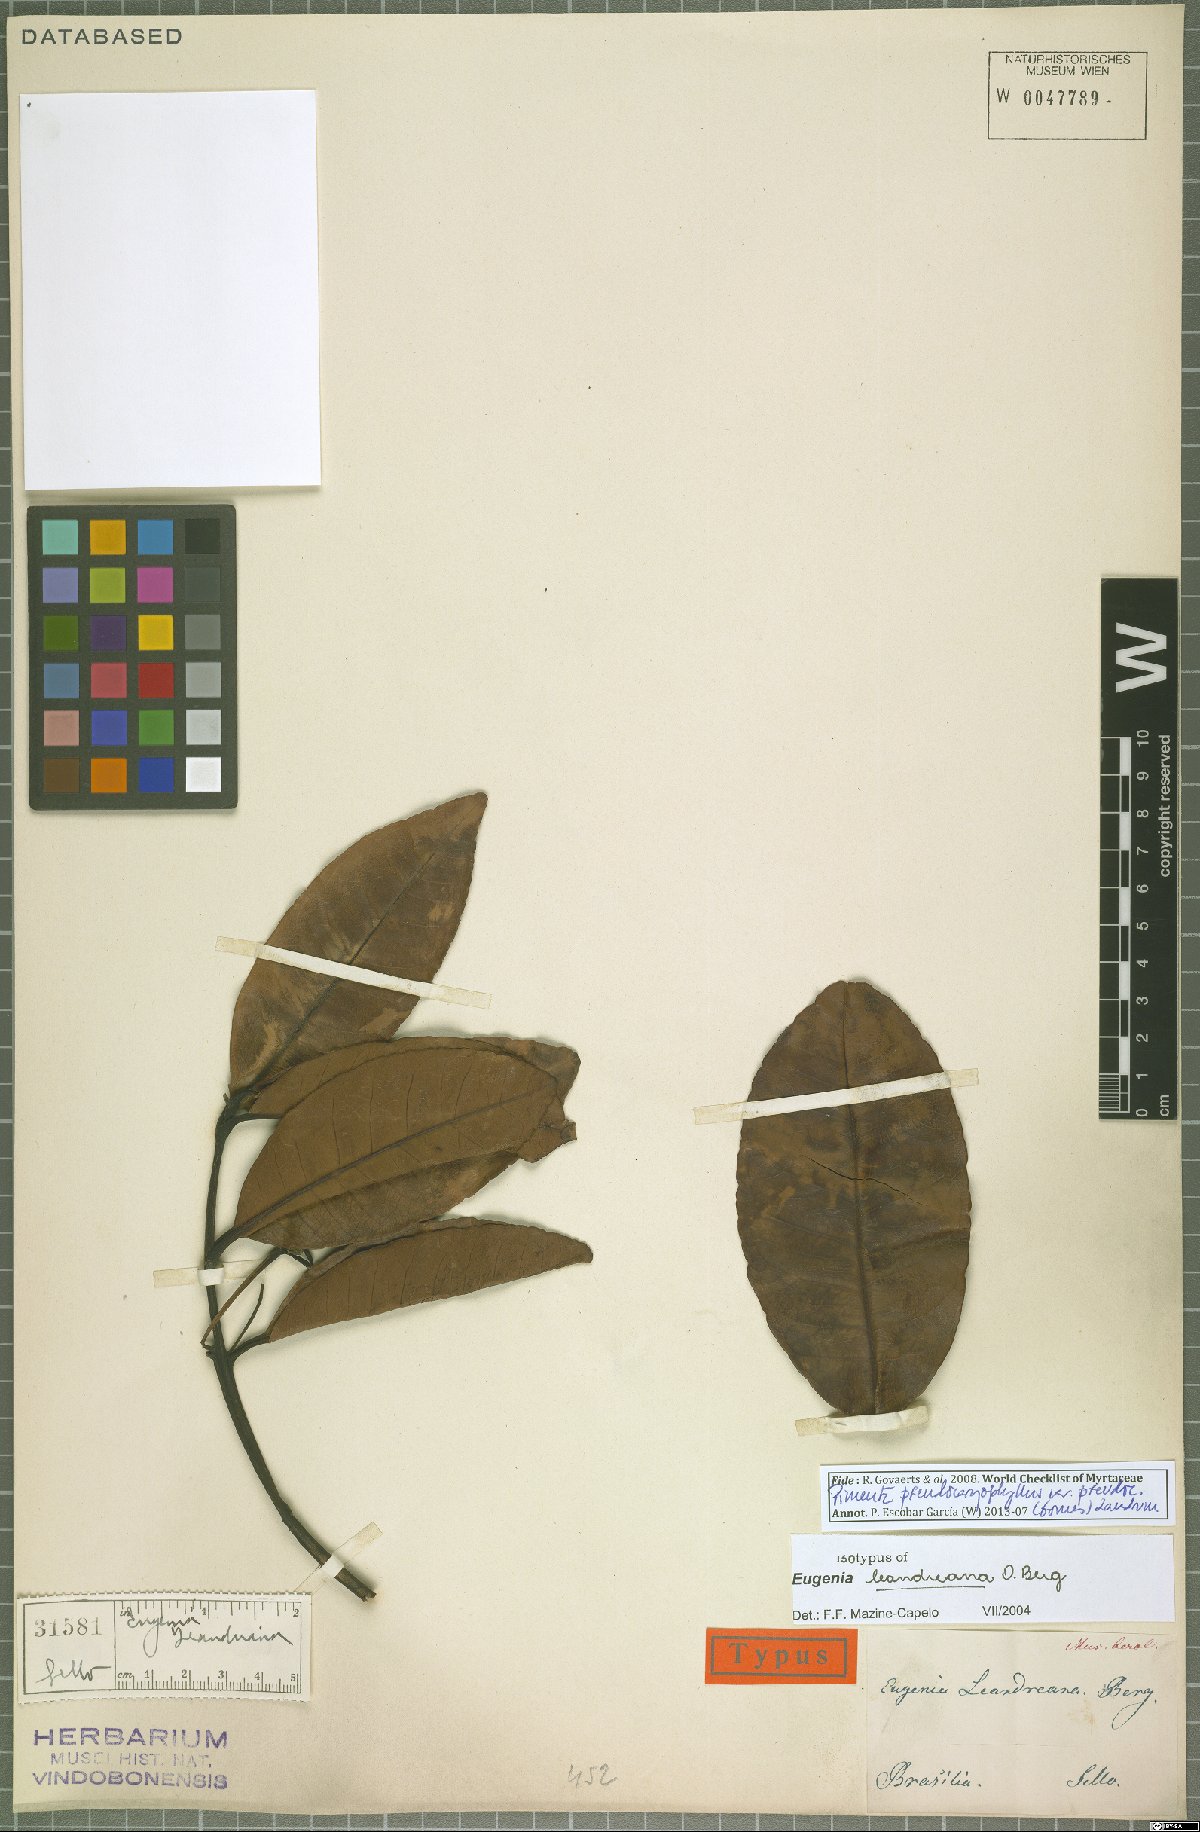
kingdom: Plantae
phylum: Tracheophyta
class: Magnoliopsida
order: Myrtales
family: Myrtaceae
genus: Pimenta
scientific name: Pimenta pseudocaryophyllus
